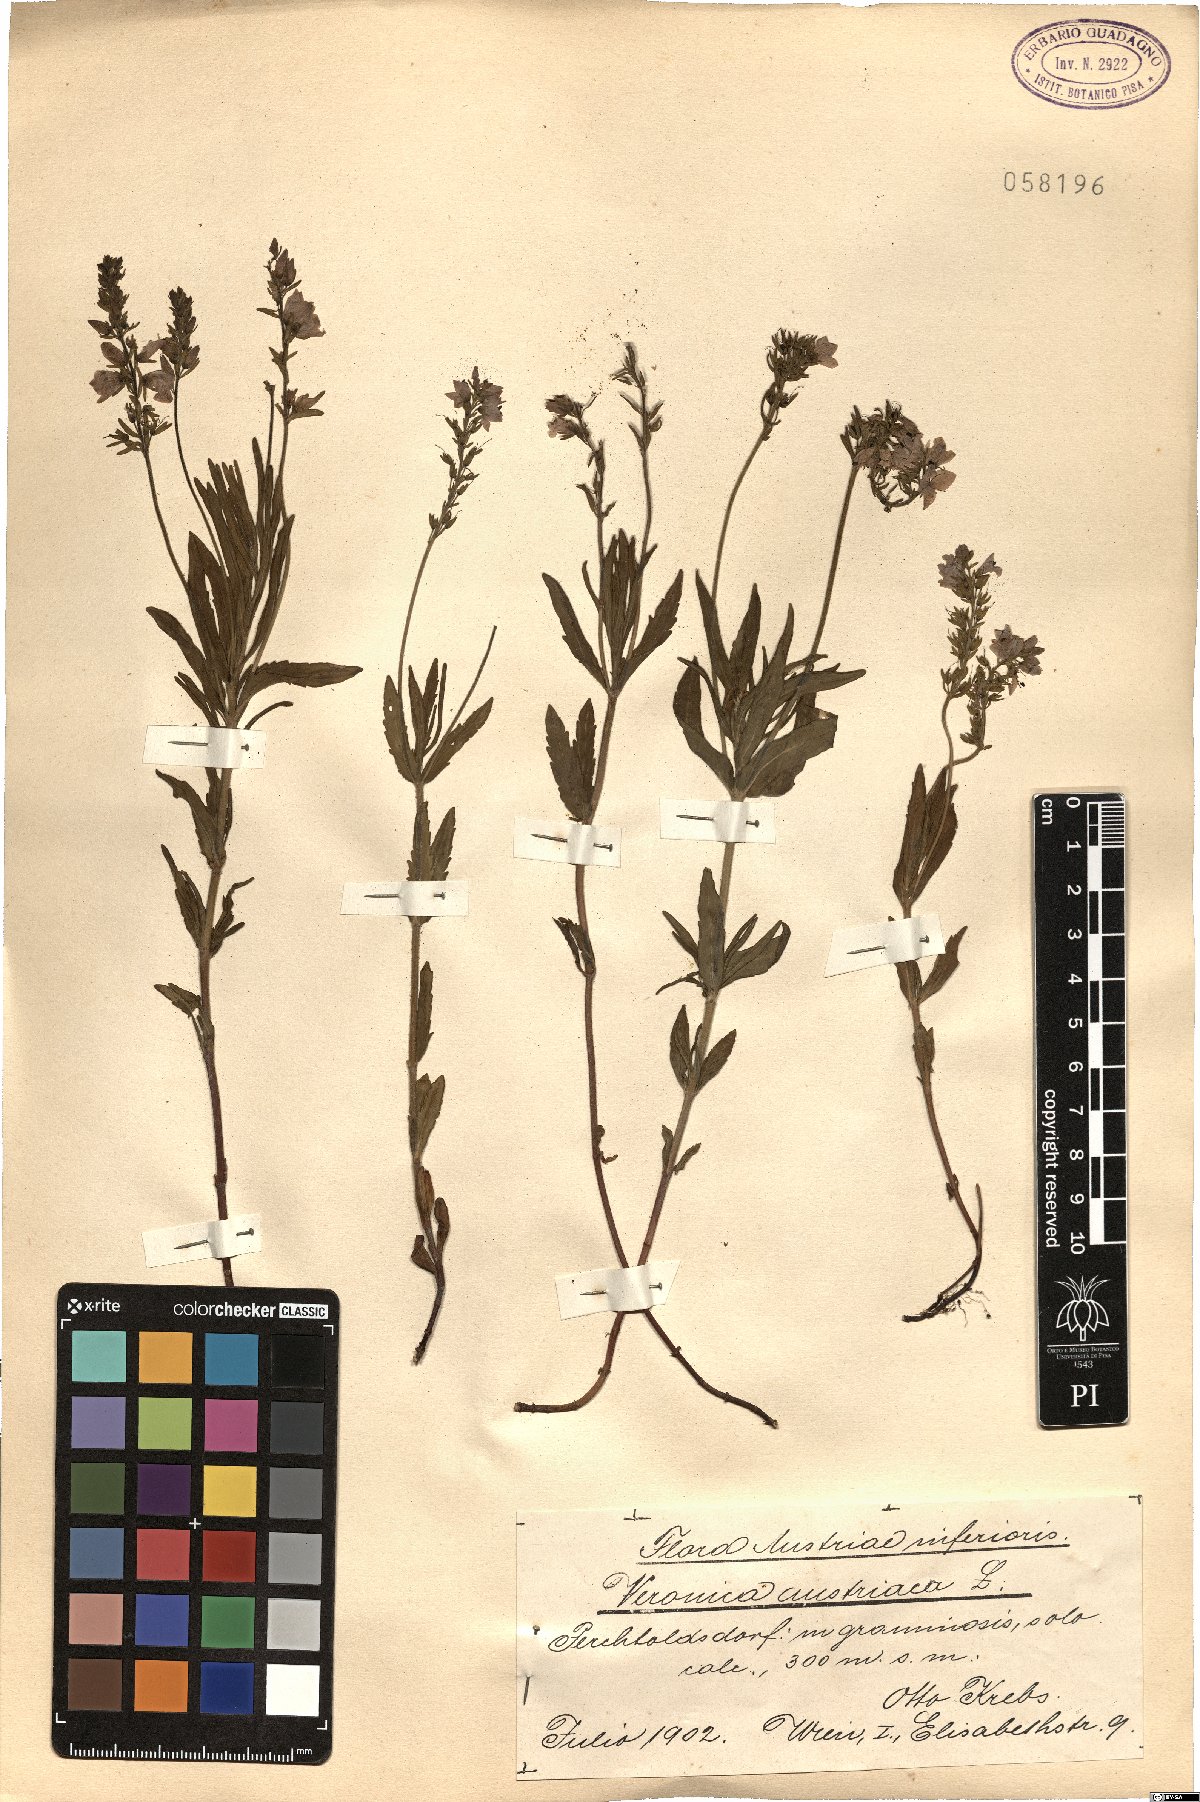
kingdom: Plantae
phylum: Tracheophyta
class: Magnoliopsida
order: Lamiales
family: Plantaginaceae
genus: Veronica
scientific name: Veronica austriaca
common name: Large speedwell
